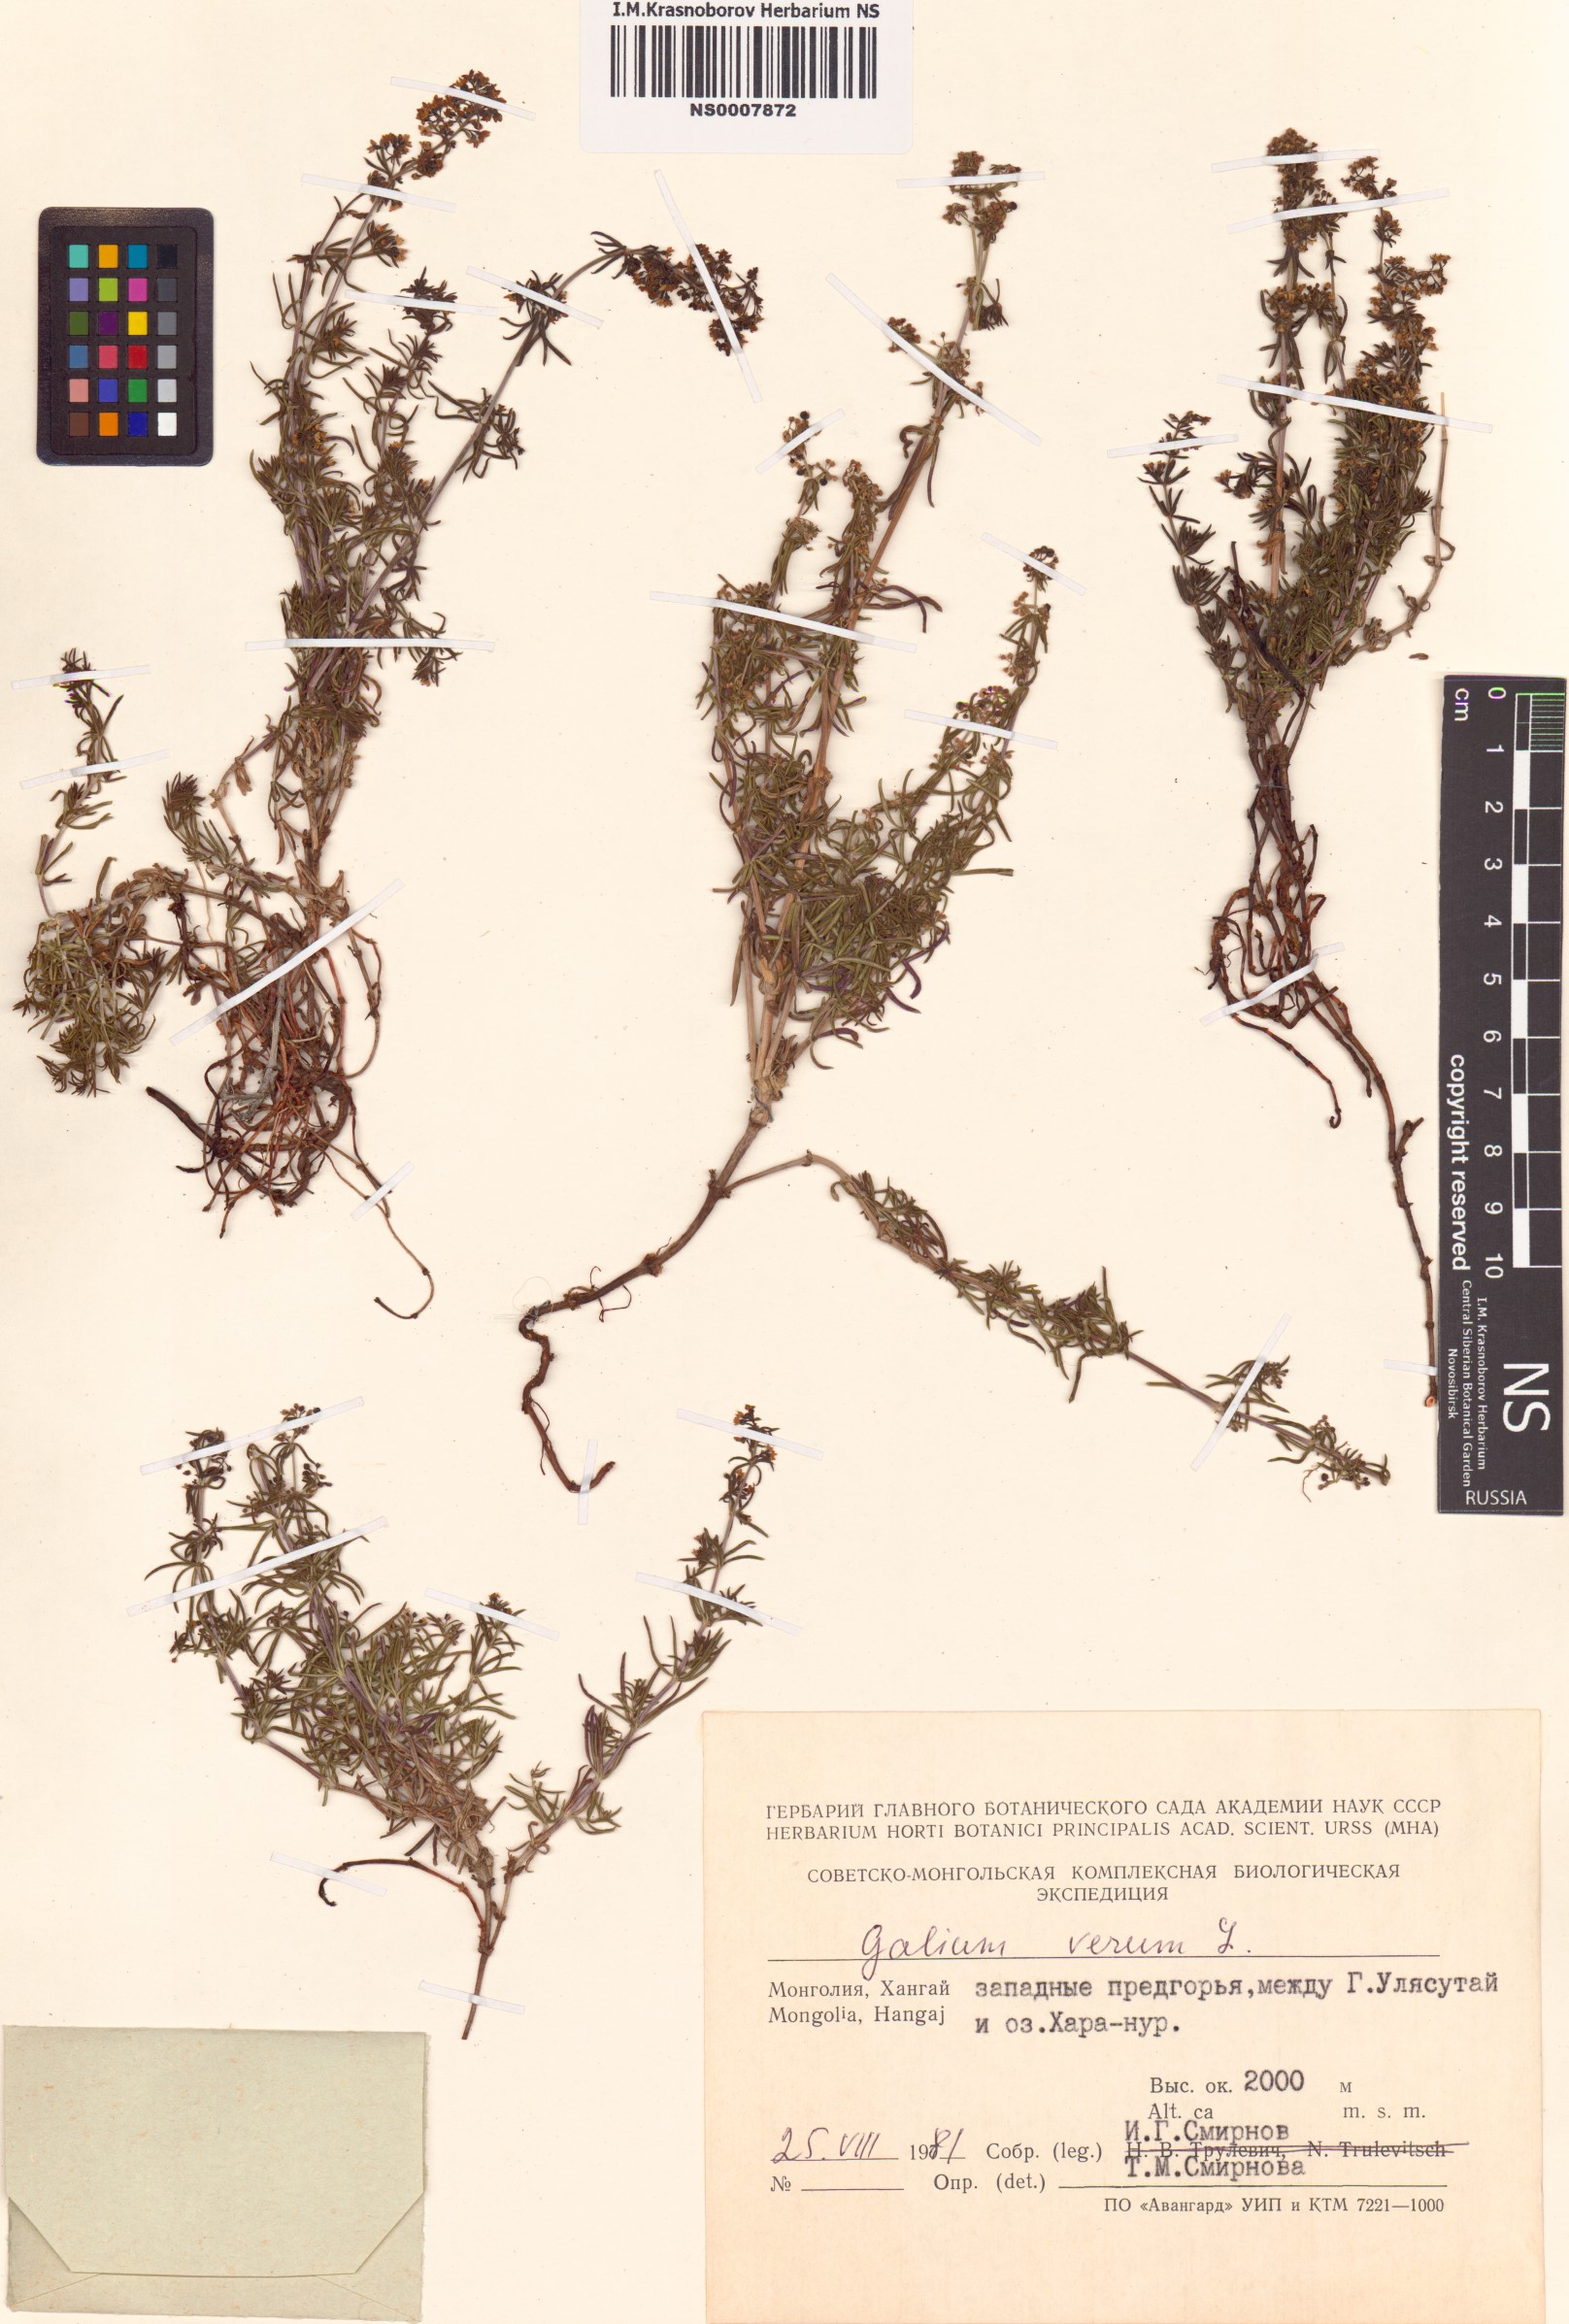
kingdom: Plantae
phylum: Tracheophyta
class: Magnoliopsida
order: Gentianales
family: Rubiaceae
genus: Galium
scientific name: Galium verum
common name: Lady's bedstraw
